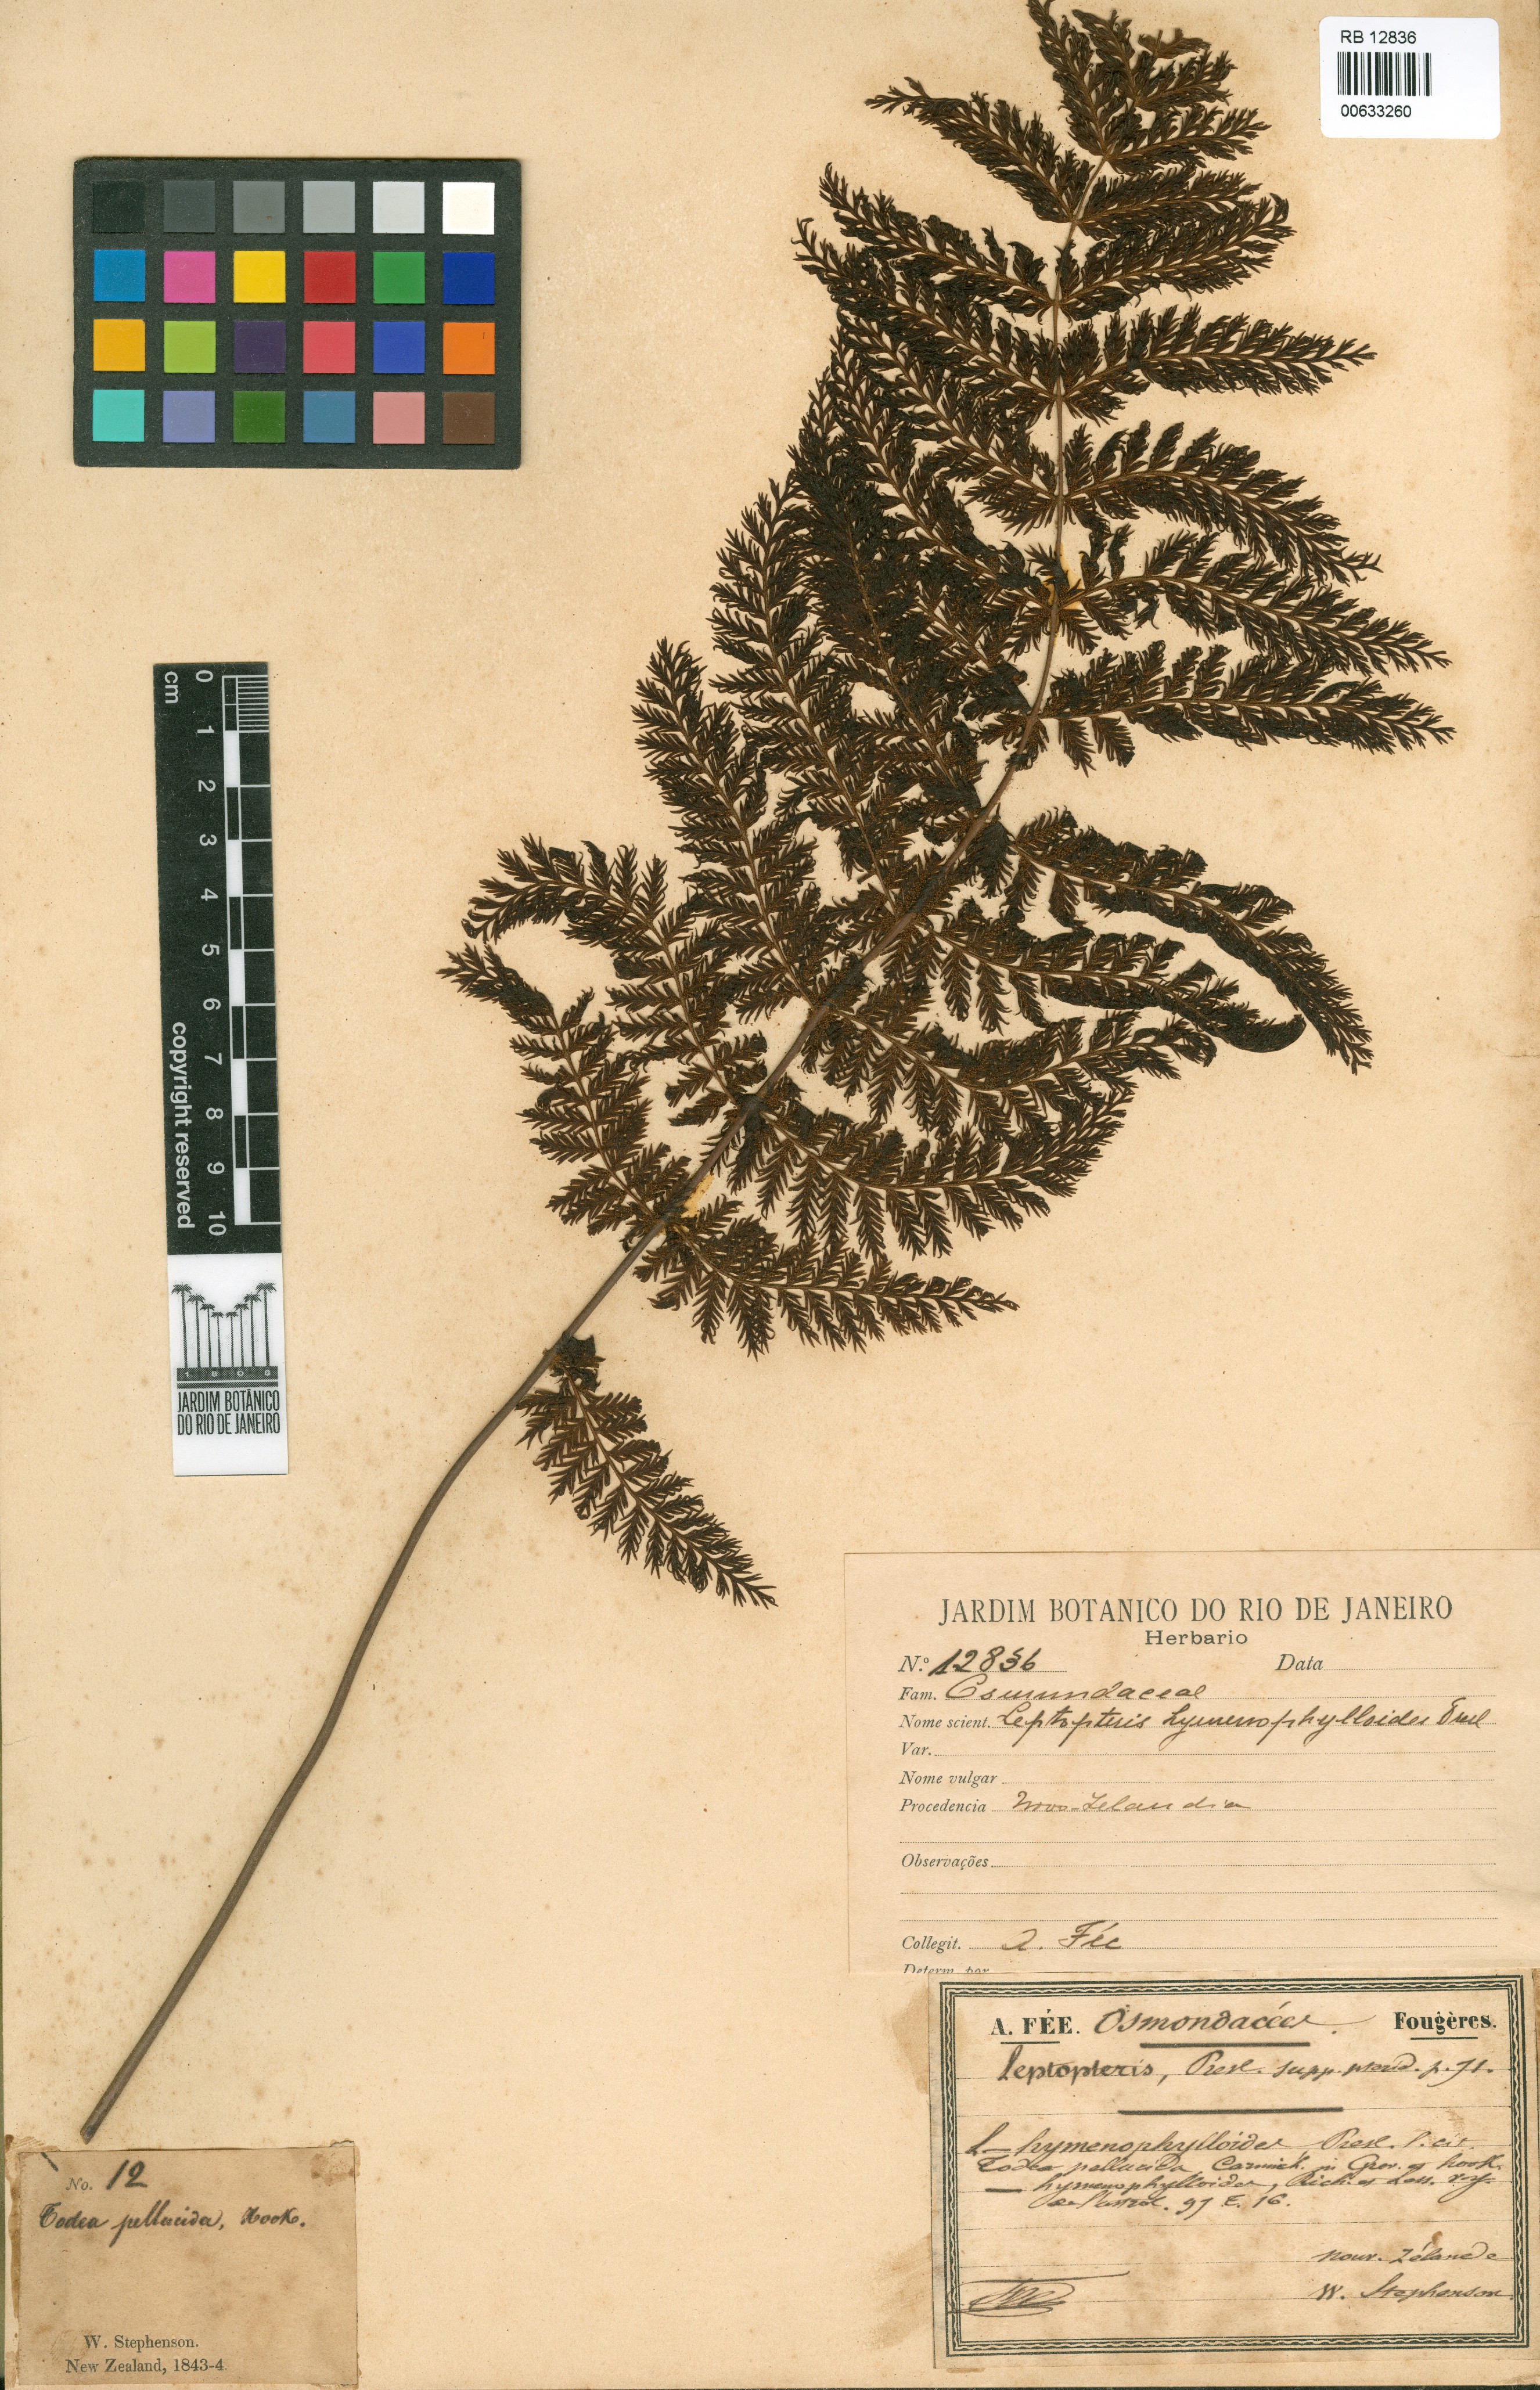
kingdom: Plantae
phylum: Tracheophyta
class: Polypodiopsida
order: Osmundales
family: Osmundaceae
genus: Leptopteris
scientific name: Leptopteris hymenophylloides
